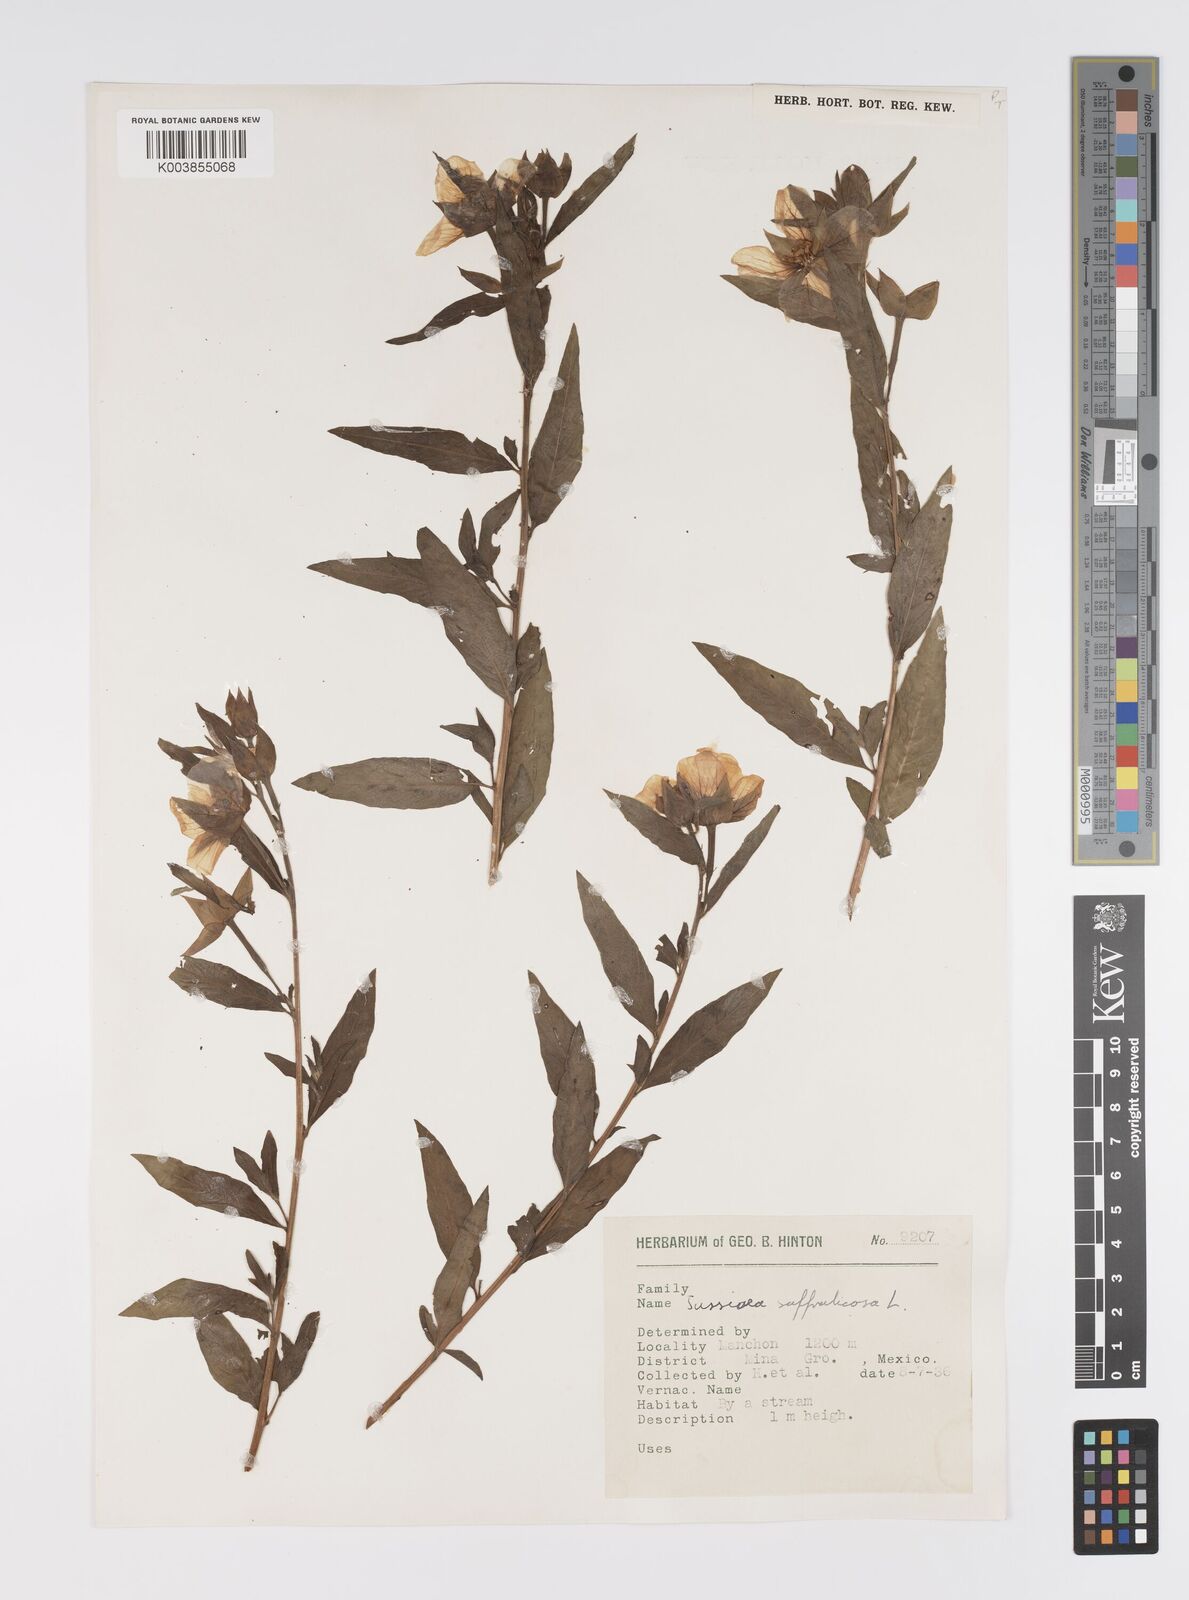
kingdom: Plantae
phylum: Tracheophyta
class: Magnoliopsida
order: Myrtales
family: Onagraceae
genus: Ludwigia
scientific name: Ludwigia octovalvis
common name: Water-primrose
